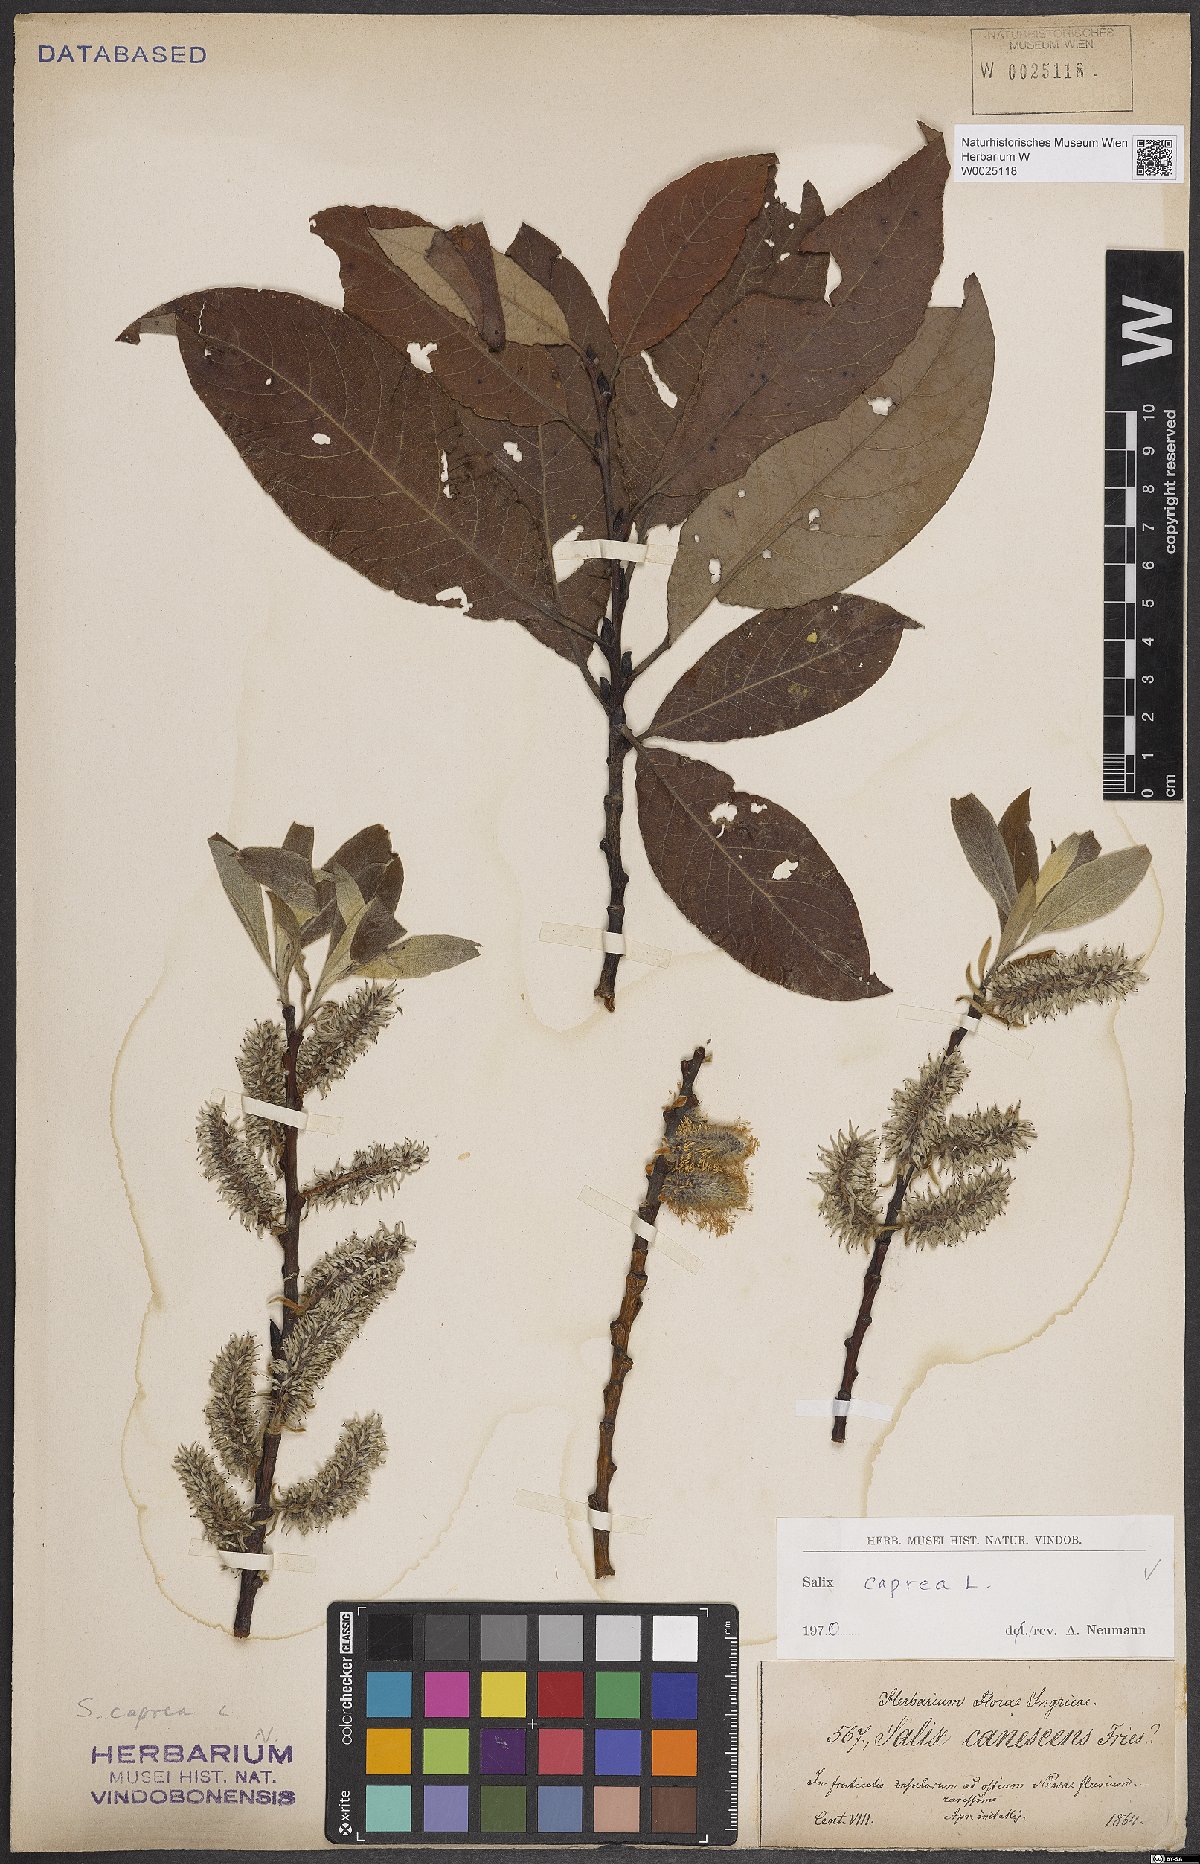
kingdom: Plantae
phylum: Tracheophyta
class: Magnoliopsida
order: Malpighiales
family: Salicaceae
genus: Salix
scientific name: Salix caprea
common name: Goat willow
